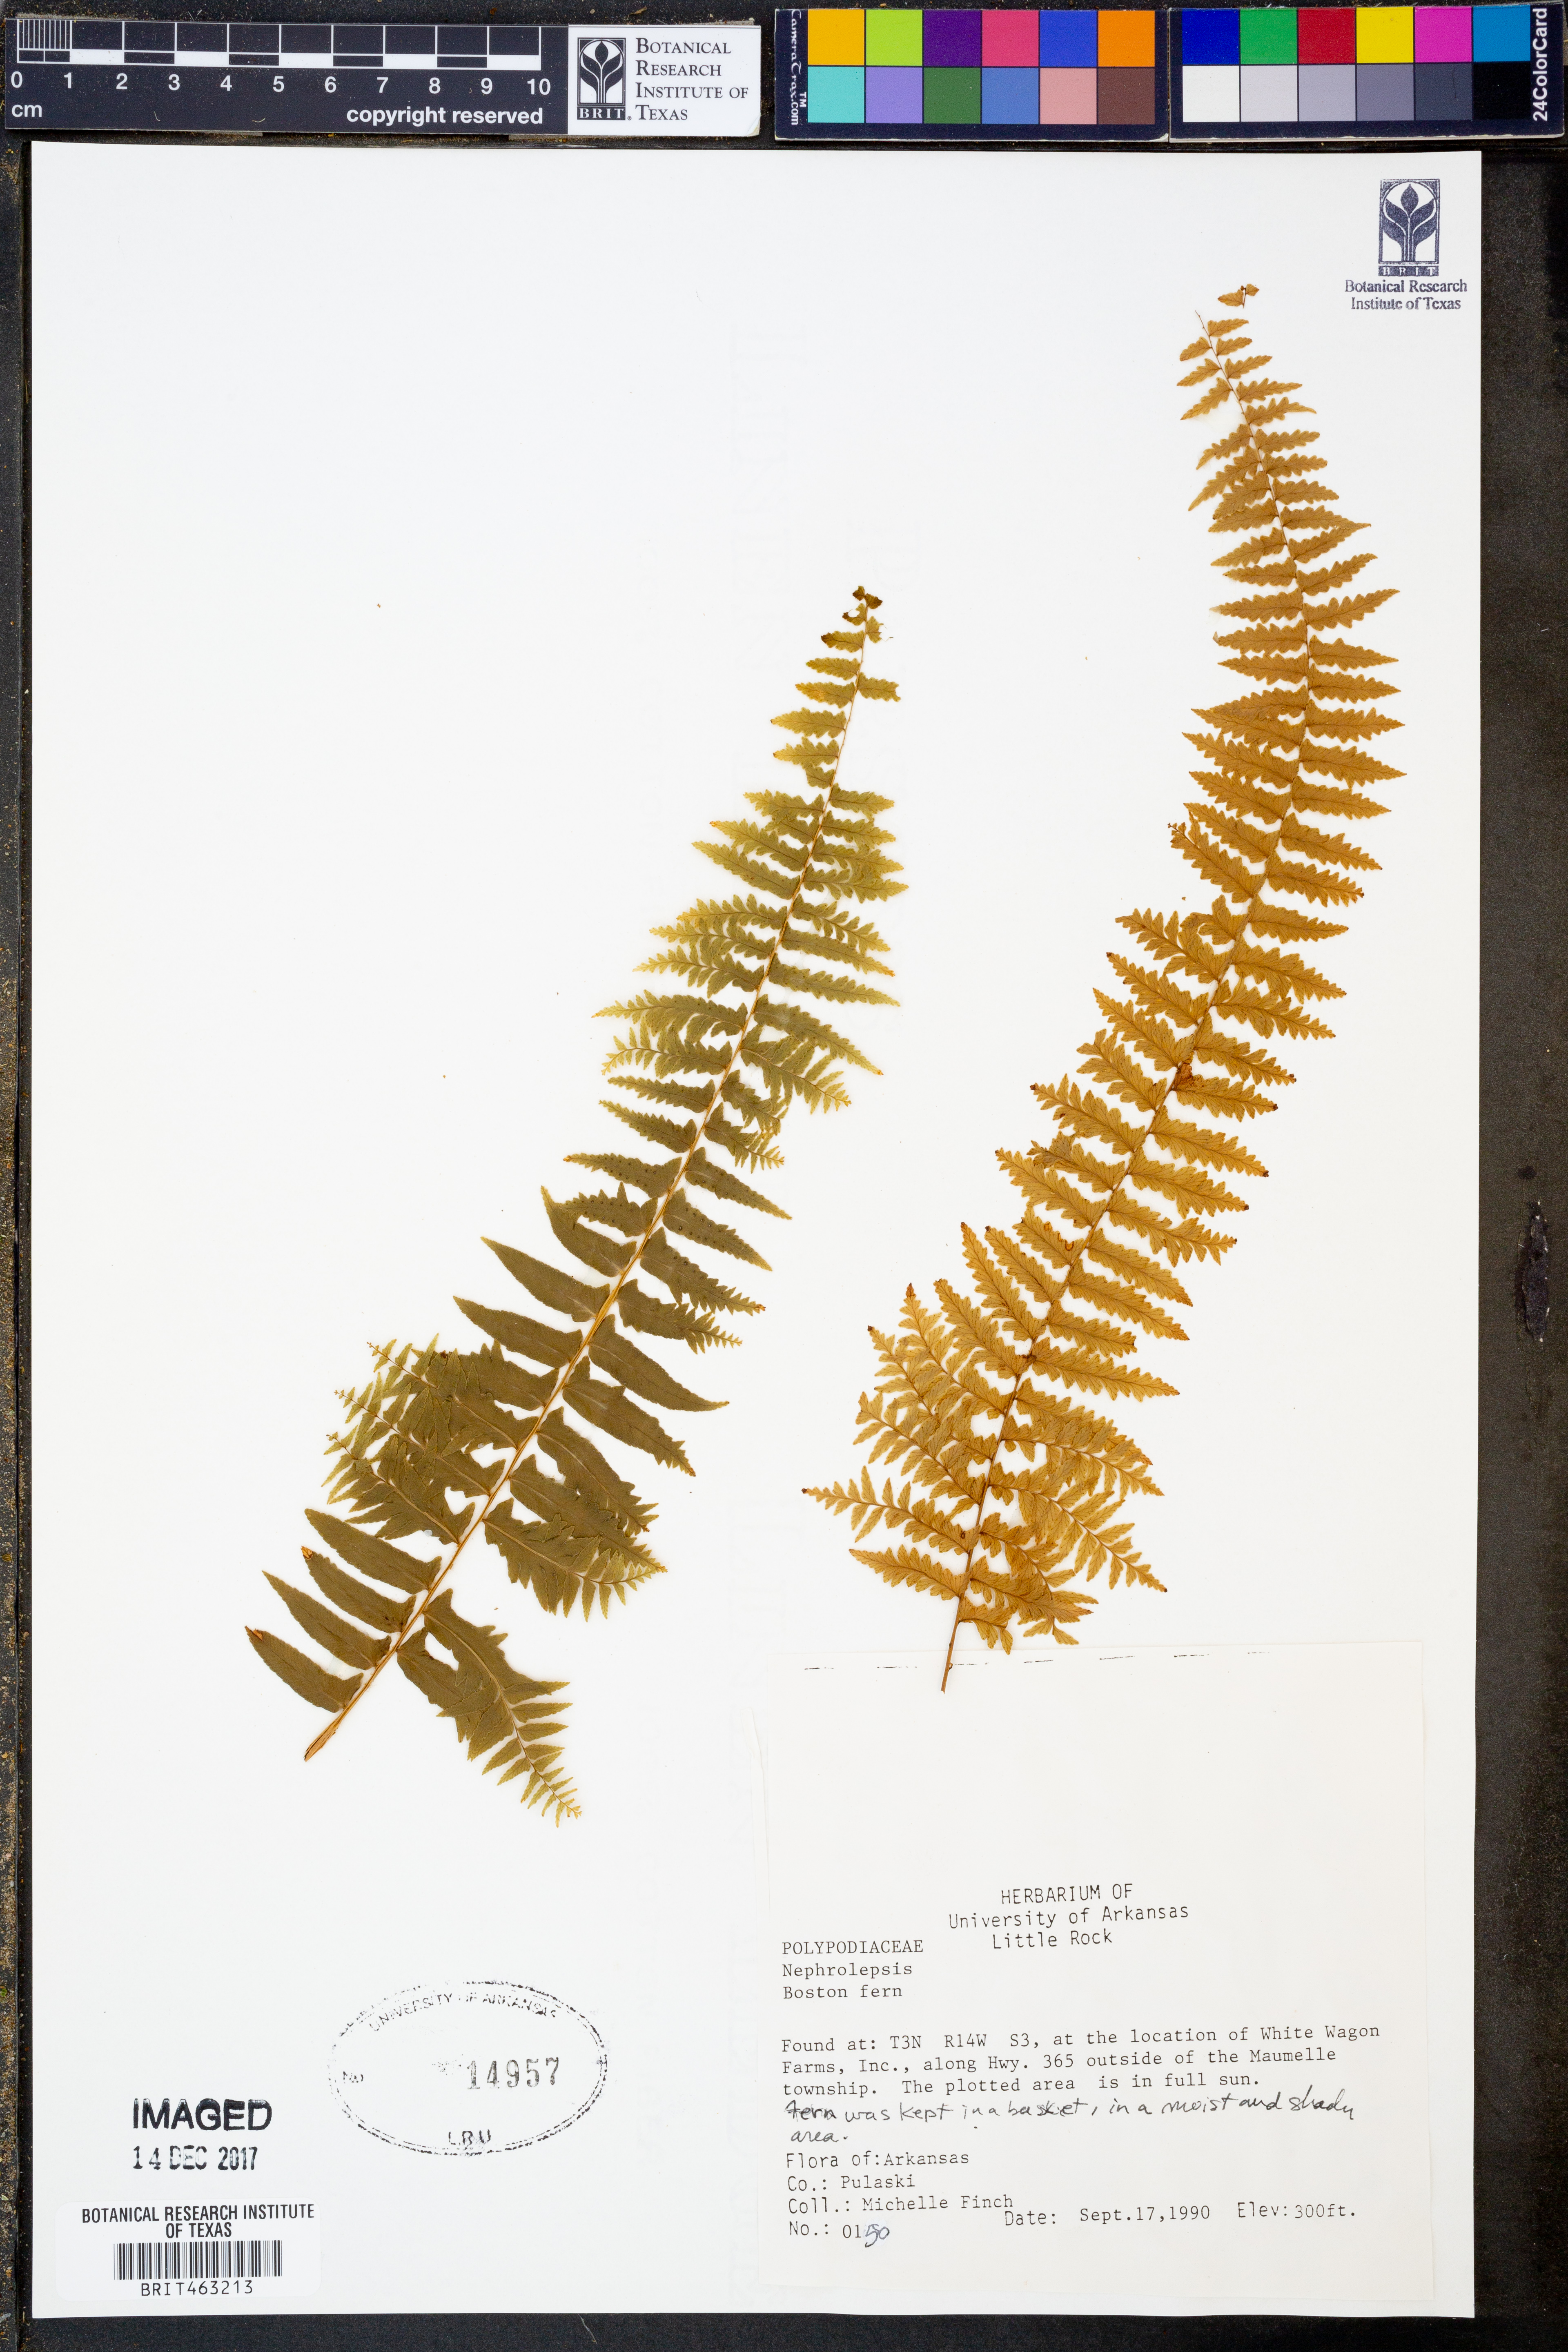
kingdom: Plantae
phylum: Tracheophyta
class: Polypodiopsida
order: Polypodiales
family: Nephrolepidaceae
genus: Nephrolepis
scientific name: Nephrolepis
